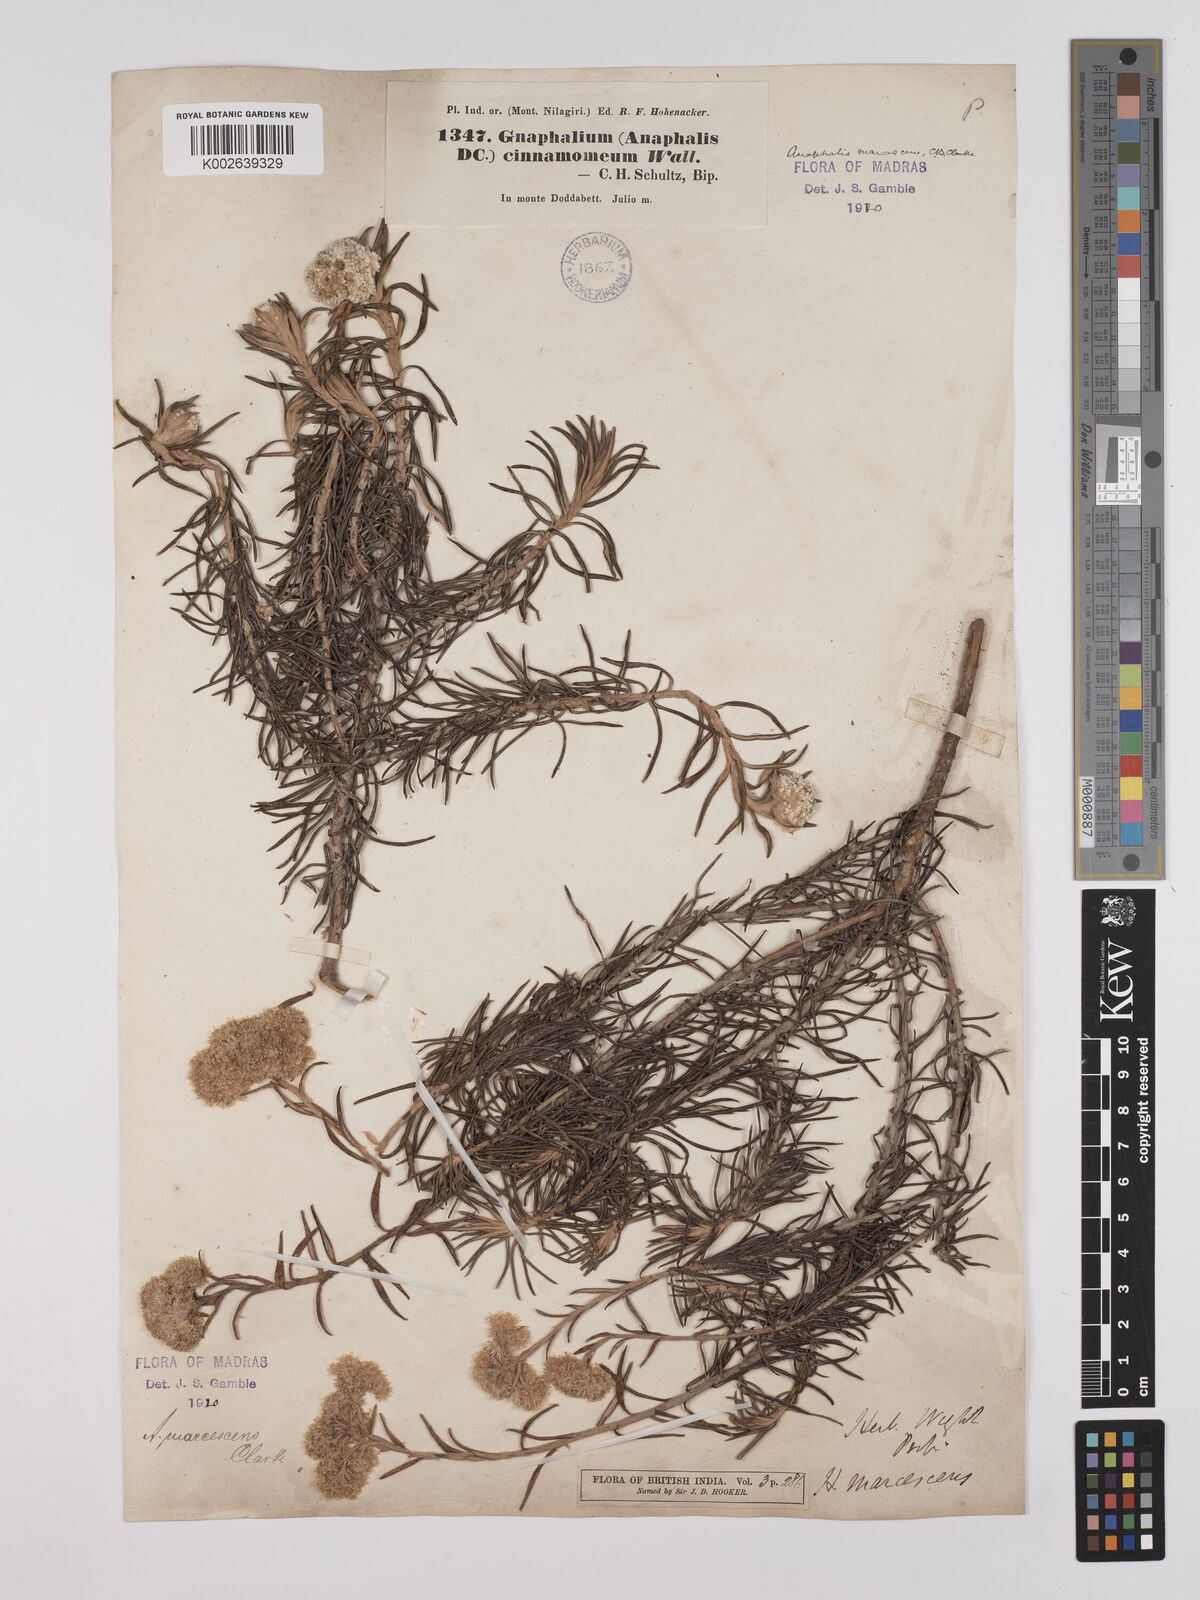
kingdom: Plantae
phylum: Tracheophyta
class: Magnoliopsida
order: Asterales
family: Asteraceae
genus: Anaphalis
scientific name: Anaphalis marcescens
